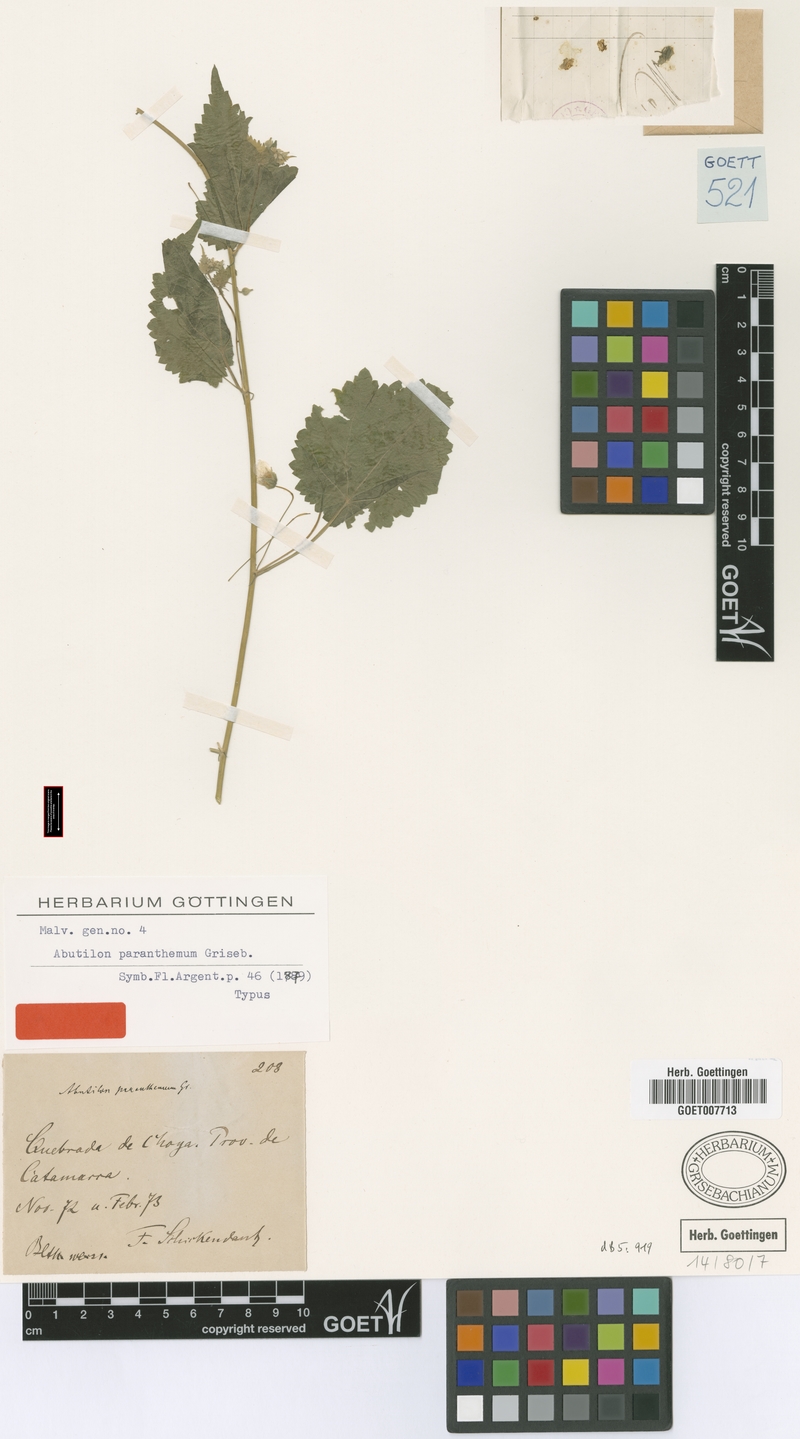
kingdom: Plantae
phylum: Tracheophyta
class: Magnoliopsida
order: Malvales
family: Malvaceae
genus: Pseudabutilon
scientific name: Pseudabutilon virgatum
